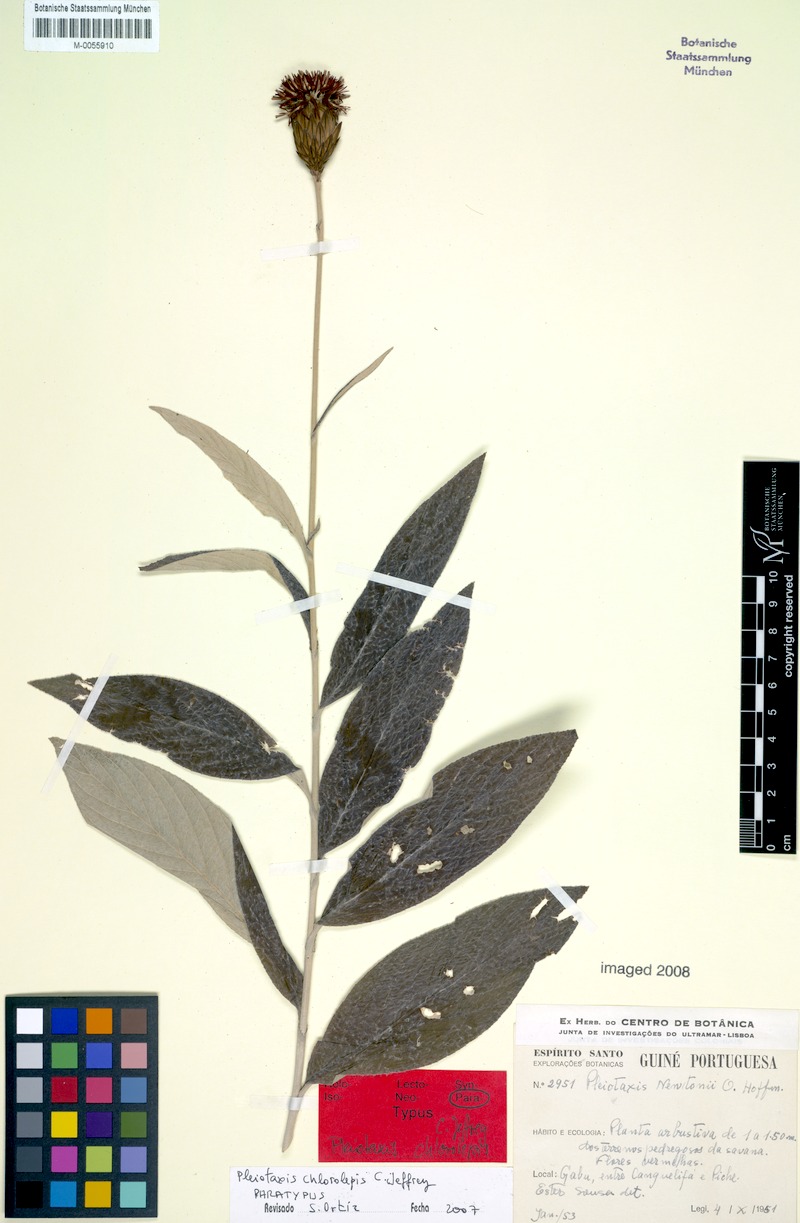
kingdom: Plantae
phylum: Tracheophyta
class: Magnoliopsida
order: Asterales
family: Asteraceae
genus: Pleiotaxis
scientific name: Pleiotaxis chlorolepis
